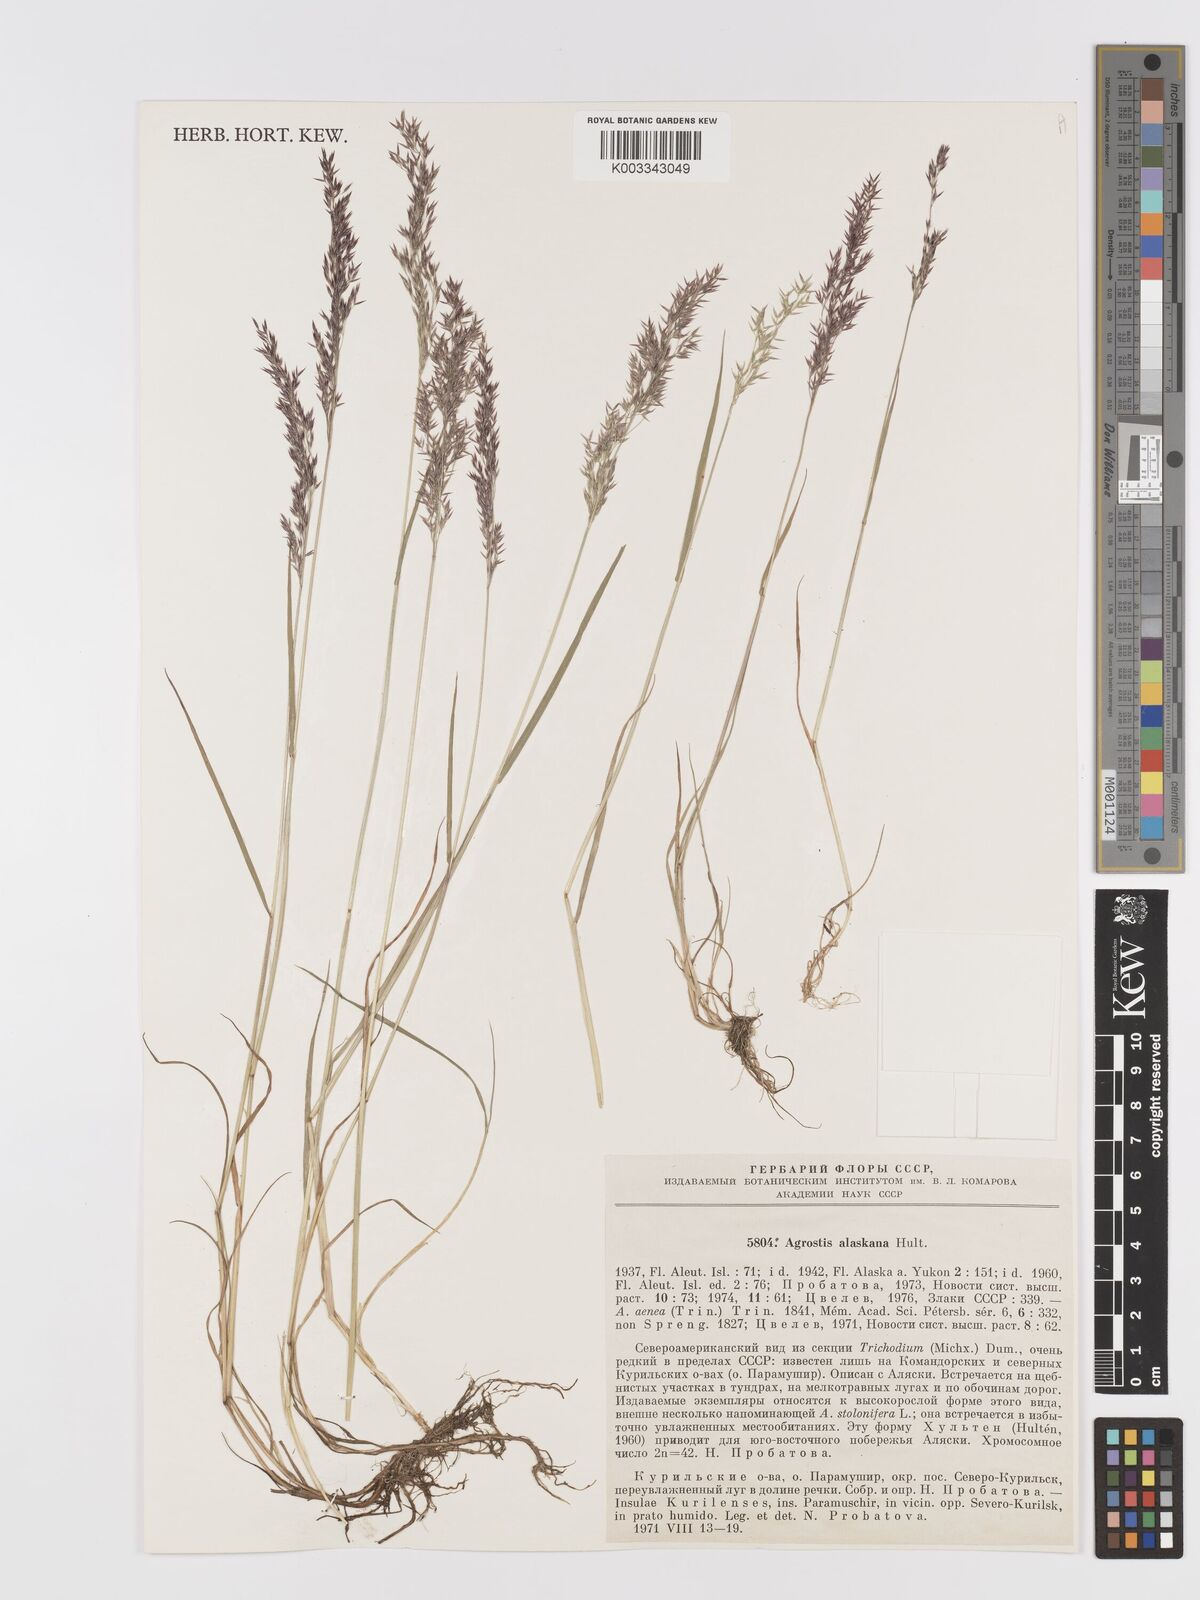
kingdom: Plantae
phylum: Tracheophyta
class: Liliopsida
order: Poales
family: Poaceae
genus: Agrostis
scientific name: Agrostis scabra
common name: Rough bent
